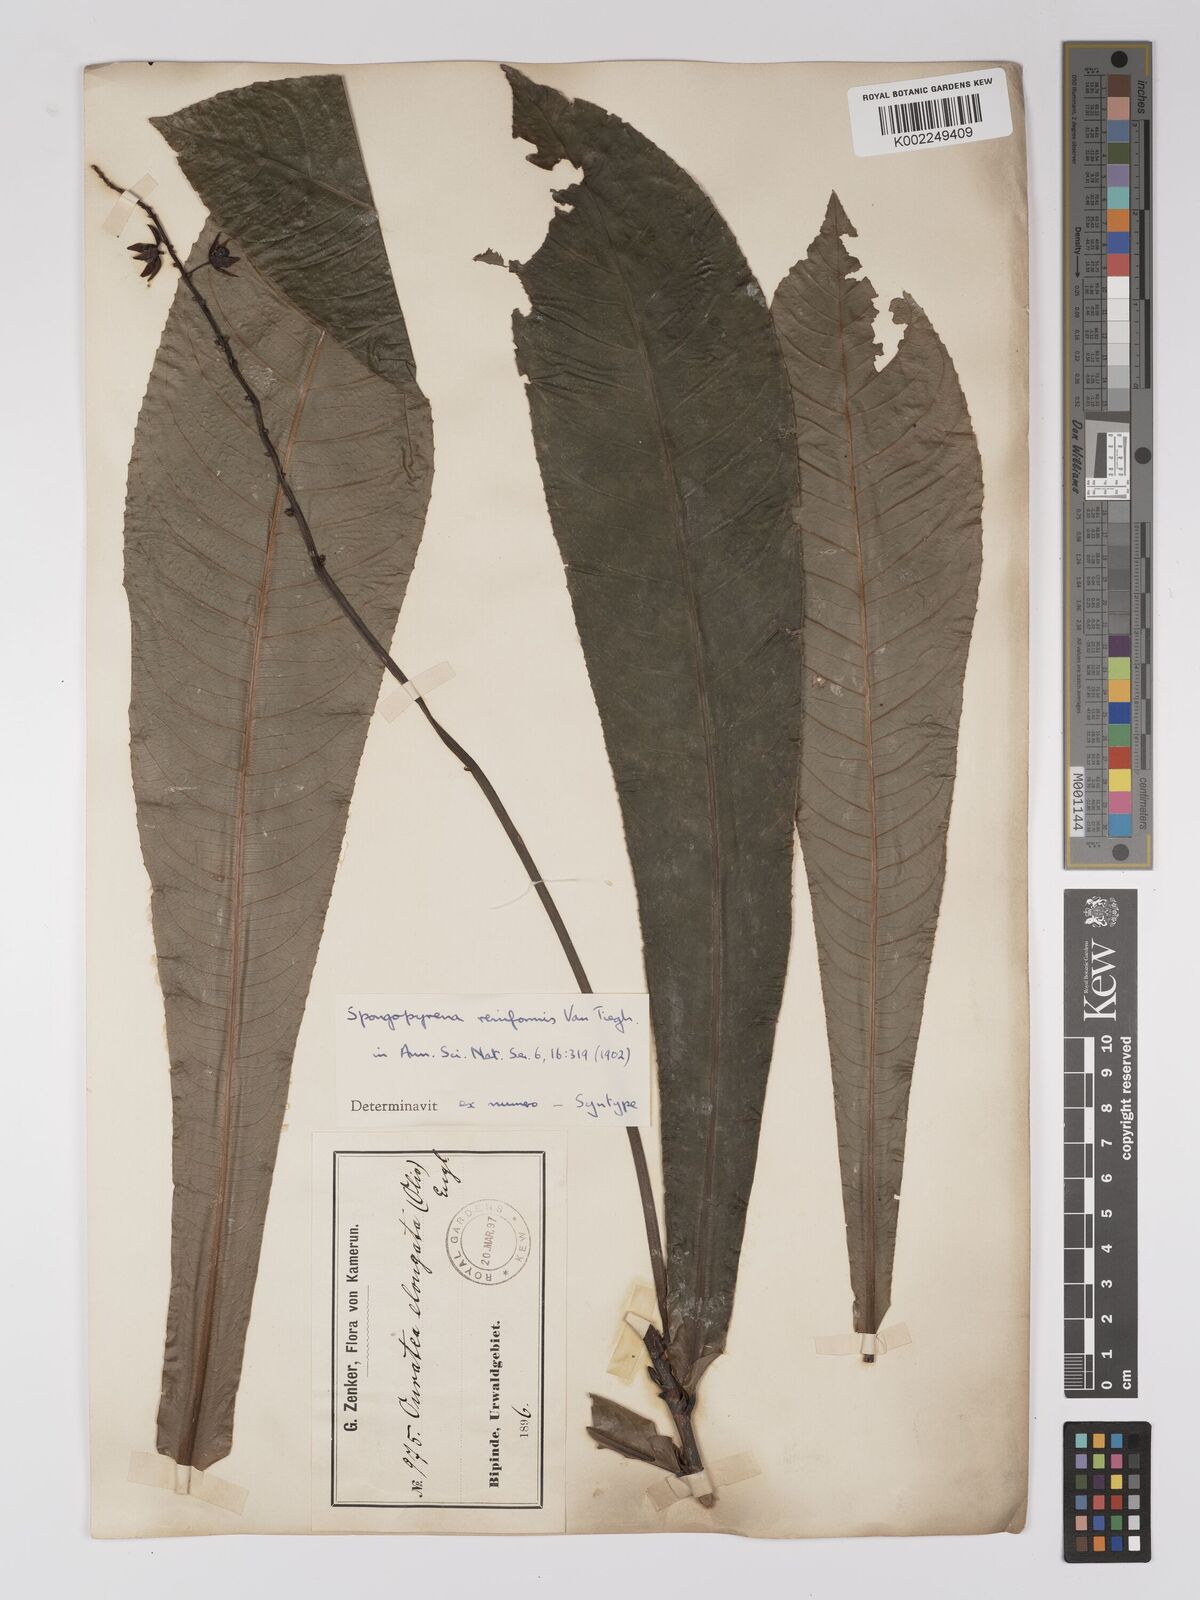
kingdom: Plantae
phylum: Tracheophyta
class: Magnoliopsida
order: Malpighiales
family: Ochnaceae
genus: Gomphia
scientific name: Gomphia elongata
